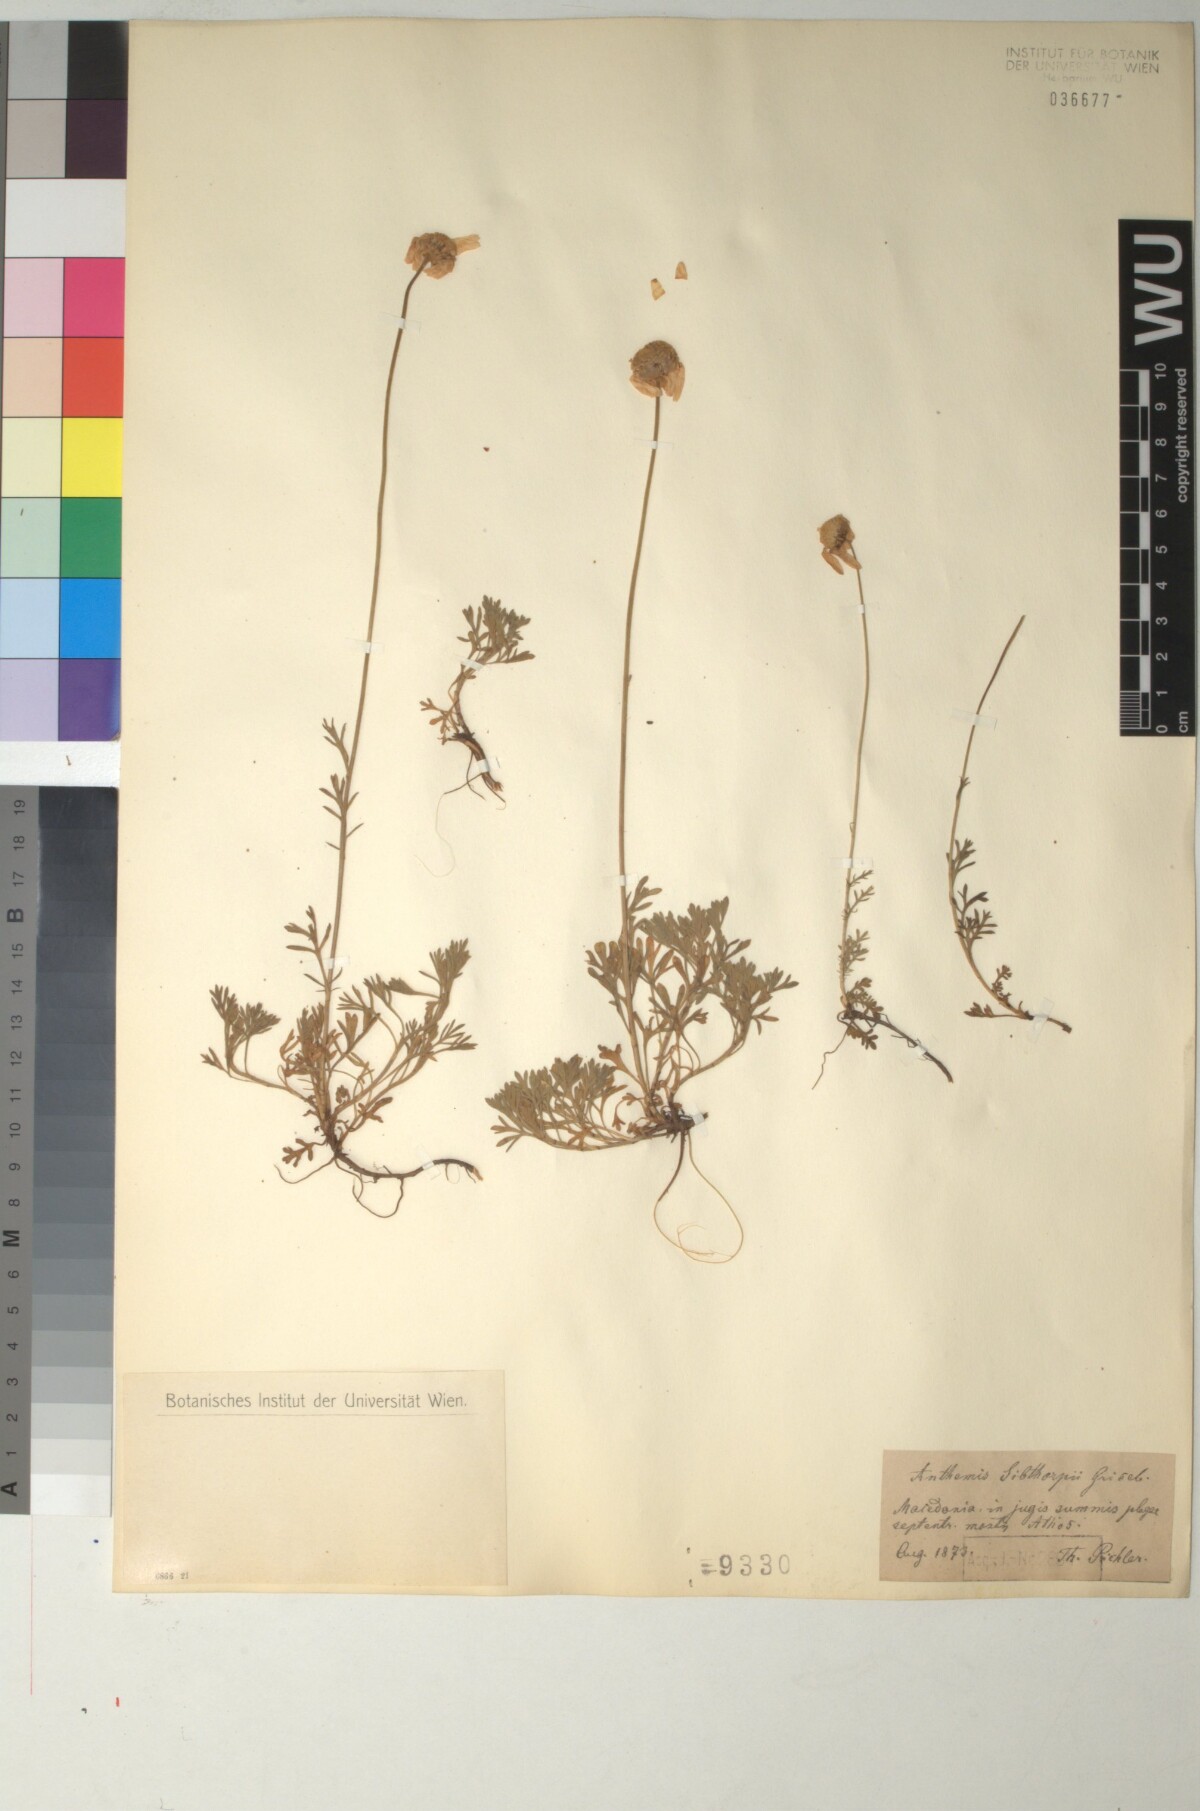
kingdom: Plantae
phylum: Tracheophyta
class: Magnoliopsida
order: Asterales
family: Asteraceae
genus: Anthemis
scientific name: Anthemis sibthorpii
